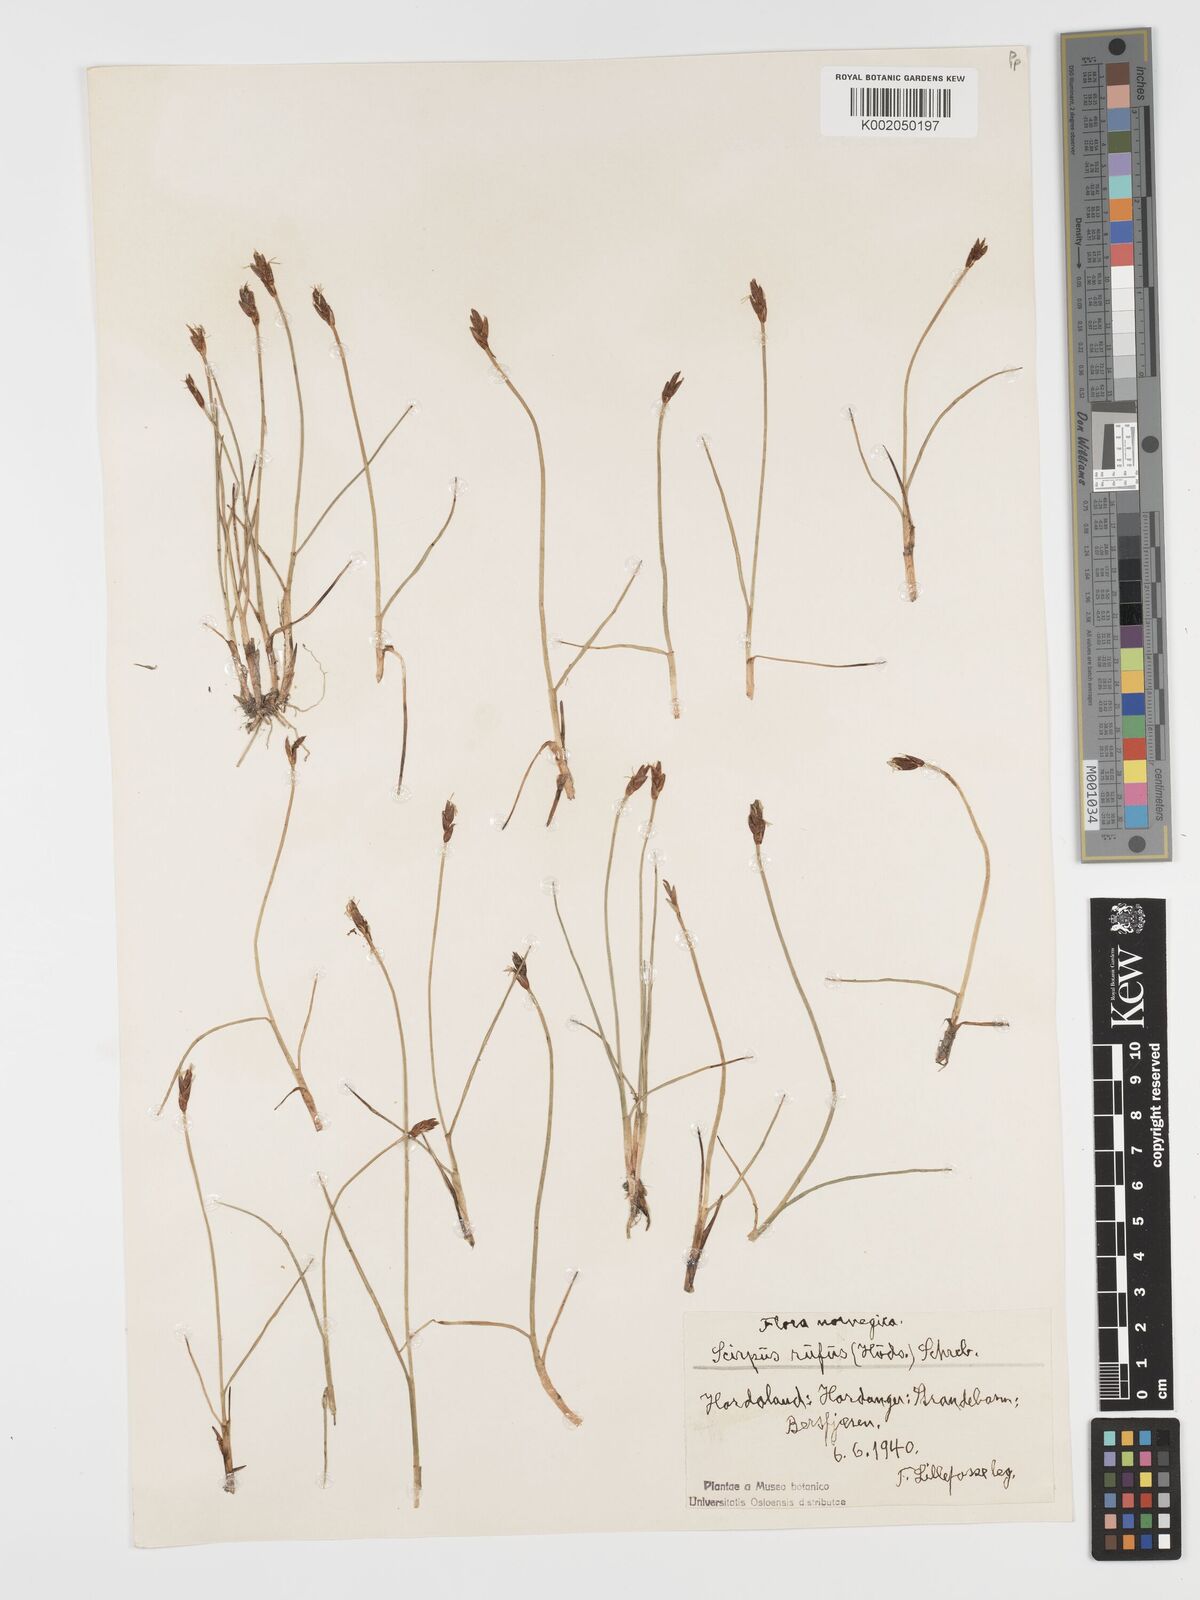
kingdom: Plantae
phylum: Tracheophyta
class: Liliopsida
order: Poales
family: Cyperaceae
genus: Blysmus
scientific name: Blysmus rufus
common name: Saltmarsh flat-sedge
